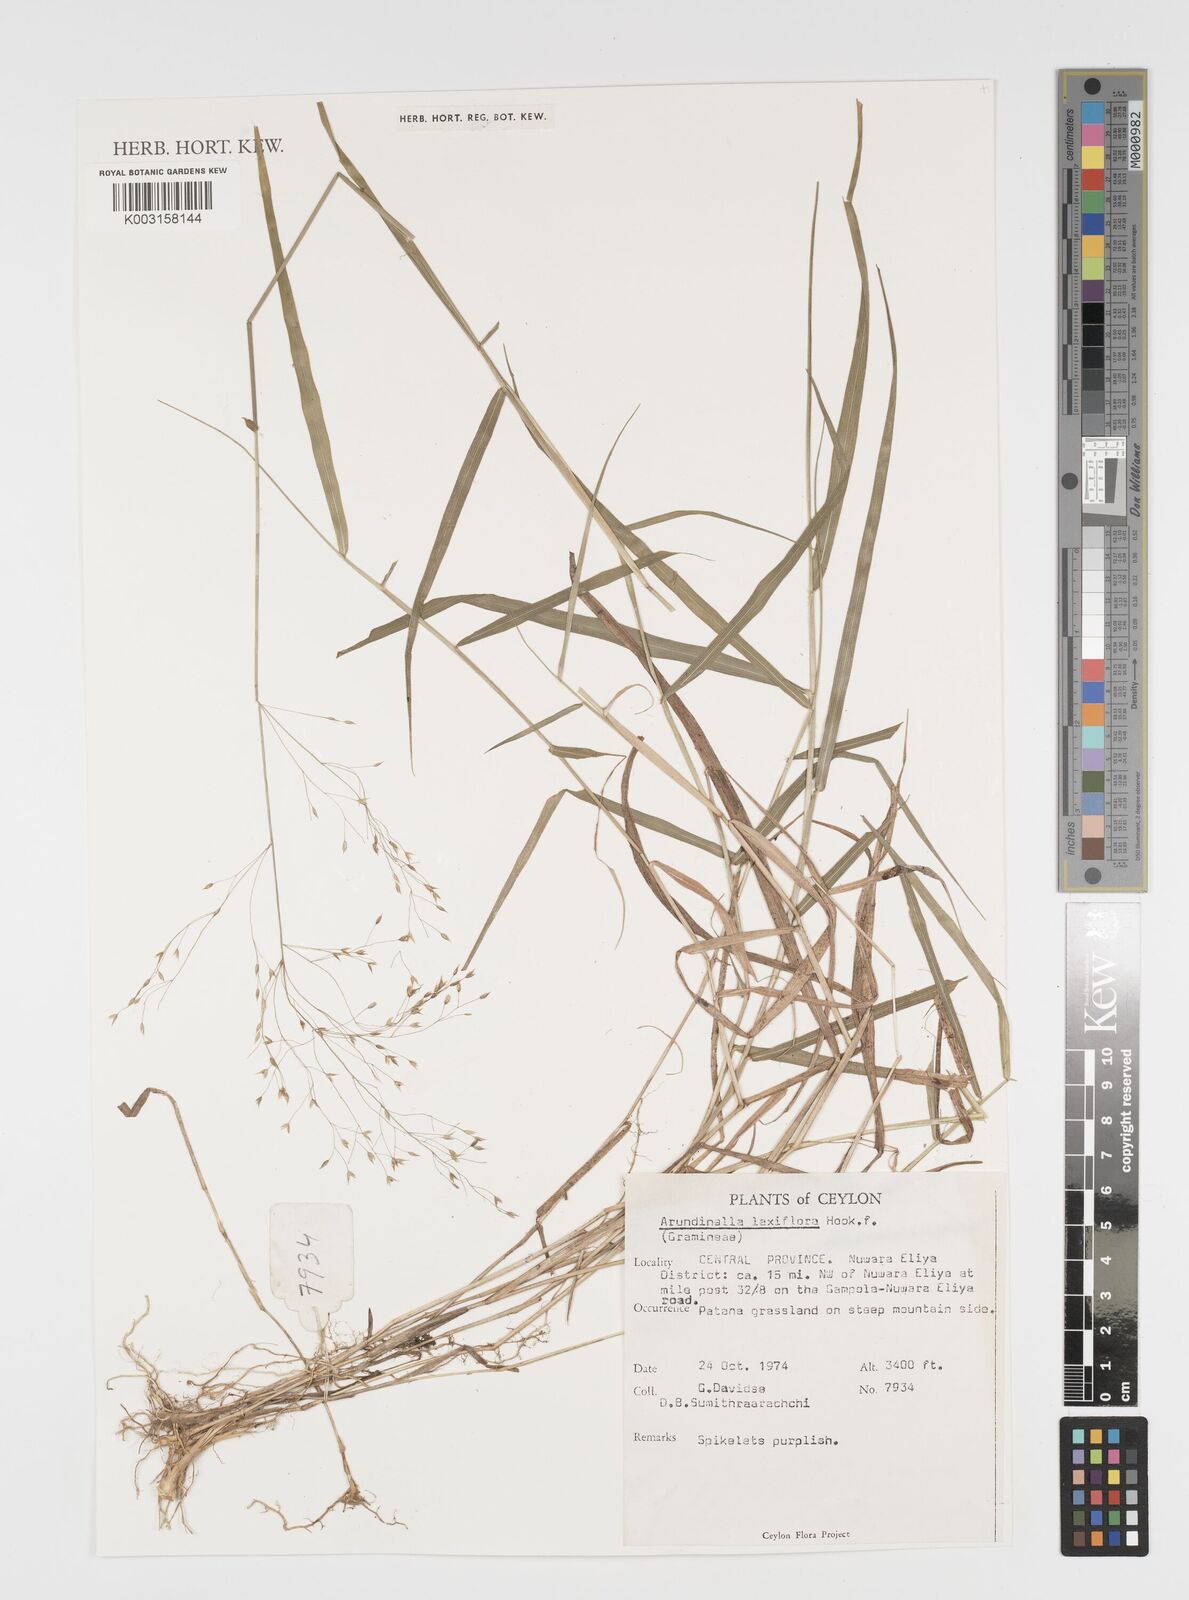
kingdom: Plantae
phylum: Tracheophyta
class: Liliopsida
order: Poales
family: Poaceae
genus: Arundinella
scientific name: Arundinella laxiflora
